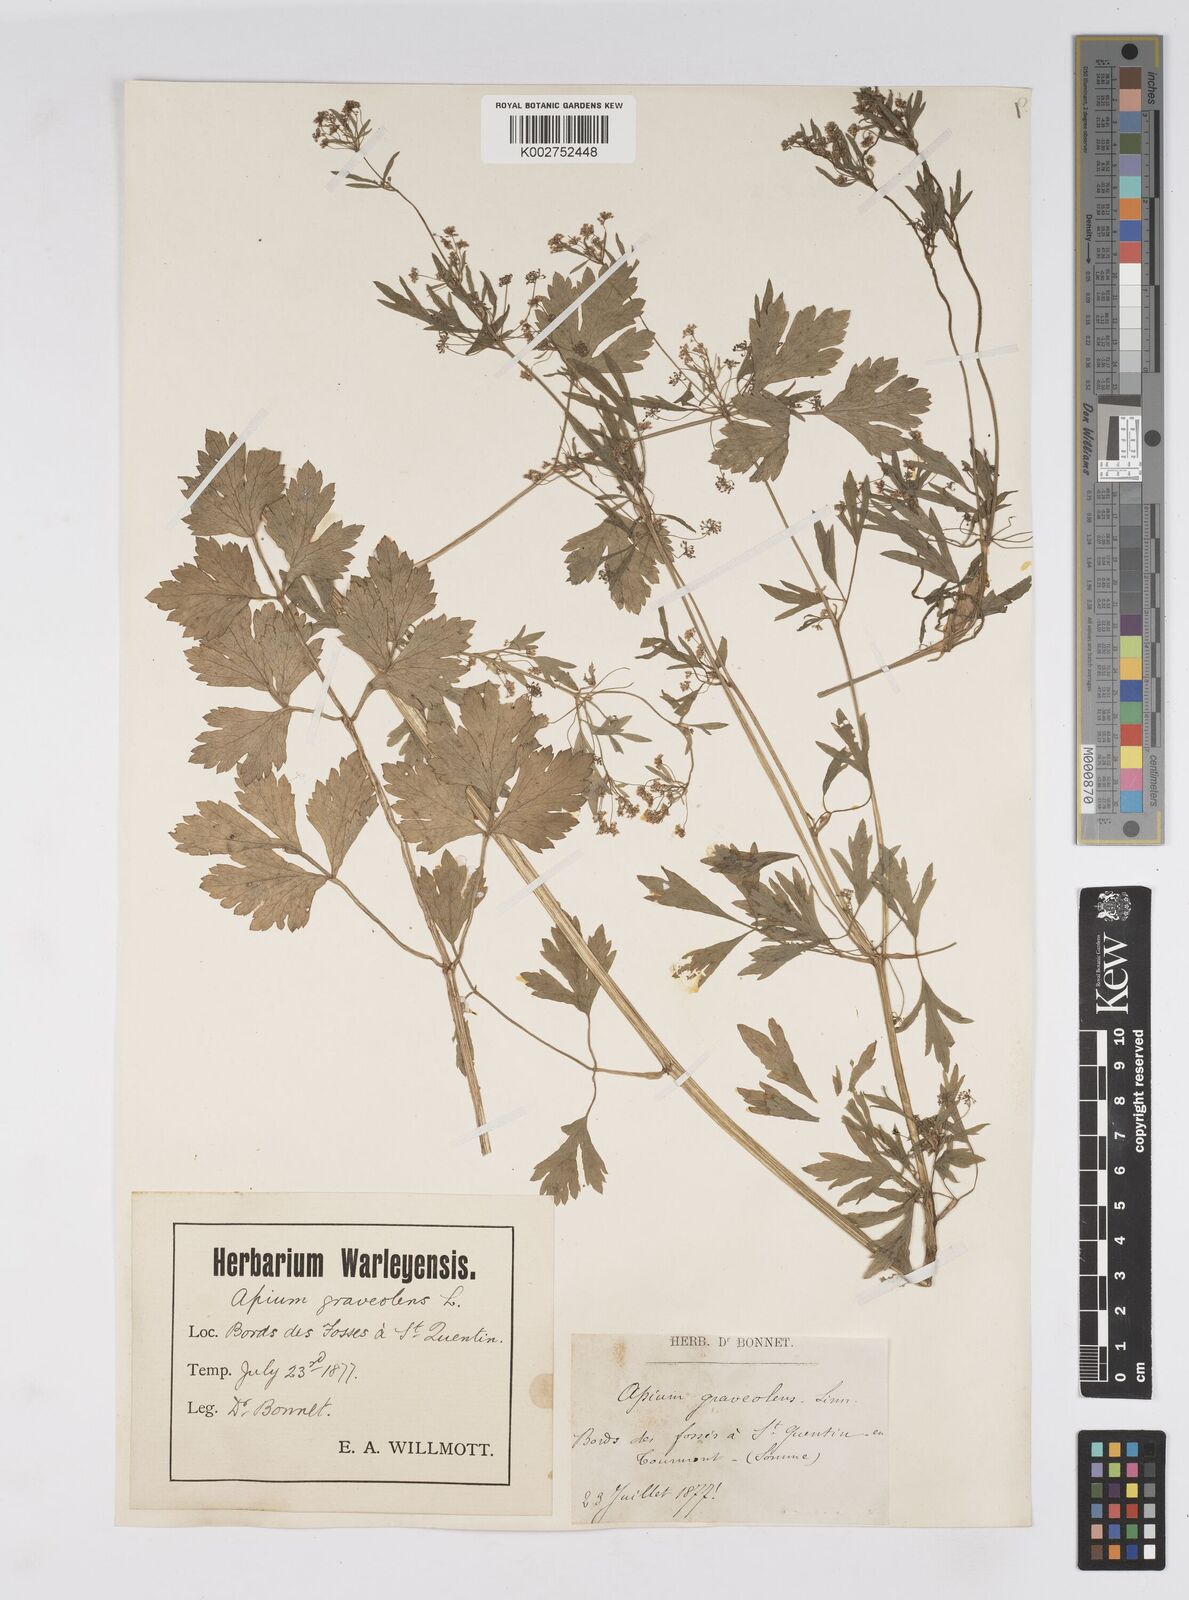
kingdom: Plantae
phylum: Tracheophyta
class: Magnoliopsida
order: Apiales
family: Apiaceae
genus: Apium
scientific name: Apium graveolens
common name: Wild celery
